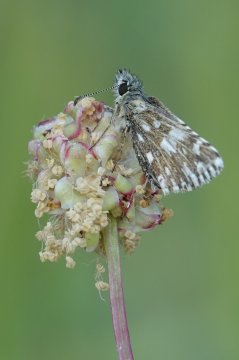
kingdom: Animalia
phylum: Arthropoda
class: Insecta
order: Lepidoptera
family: Hesperiidae
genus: Pyrgus
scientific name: Pyrgus malvae
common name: Grizzled Skipper
